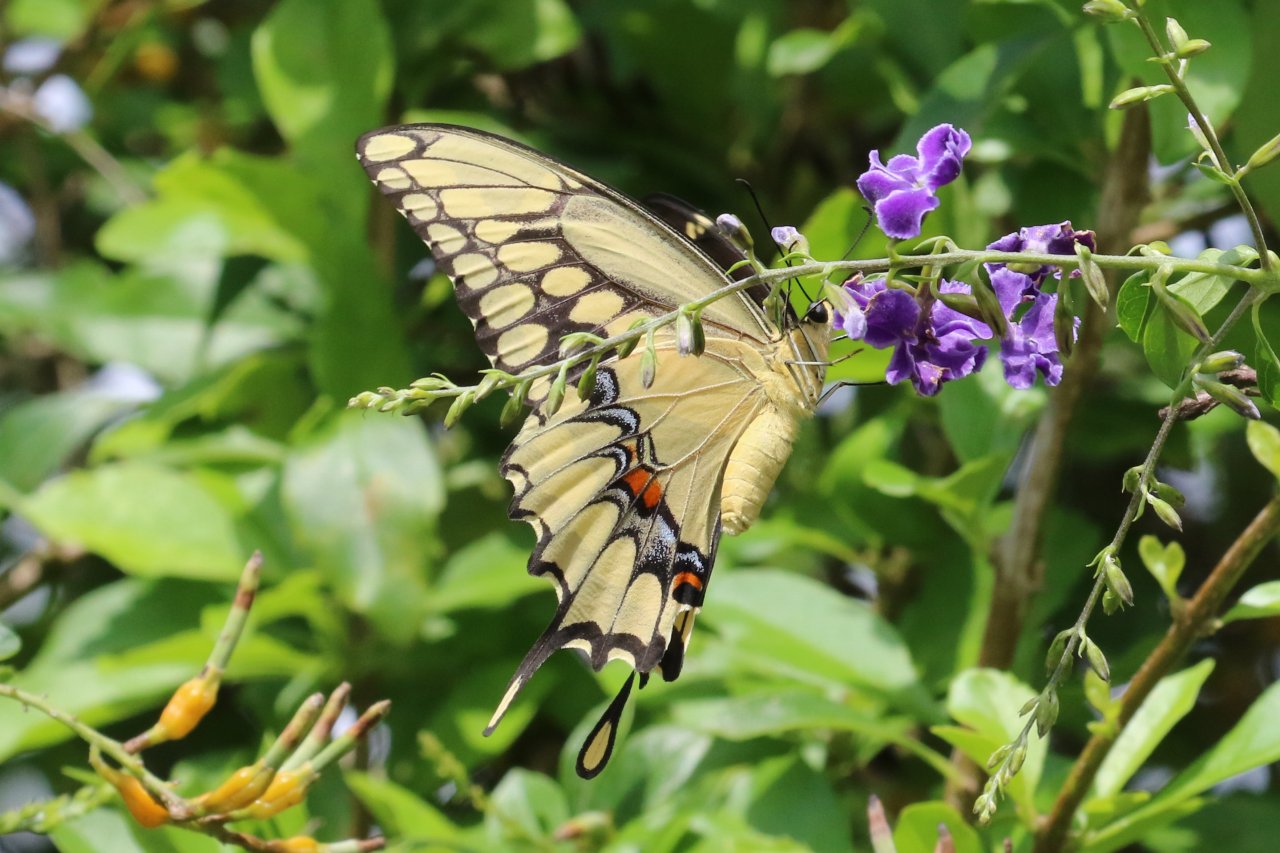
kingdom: Animalia
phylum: Arthropoda
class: Insecta
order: Lepidoptera
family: Papilionidae
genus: Papilio
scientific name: Papilio rumiko
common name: Western Giant Swallowtail
